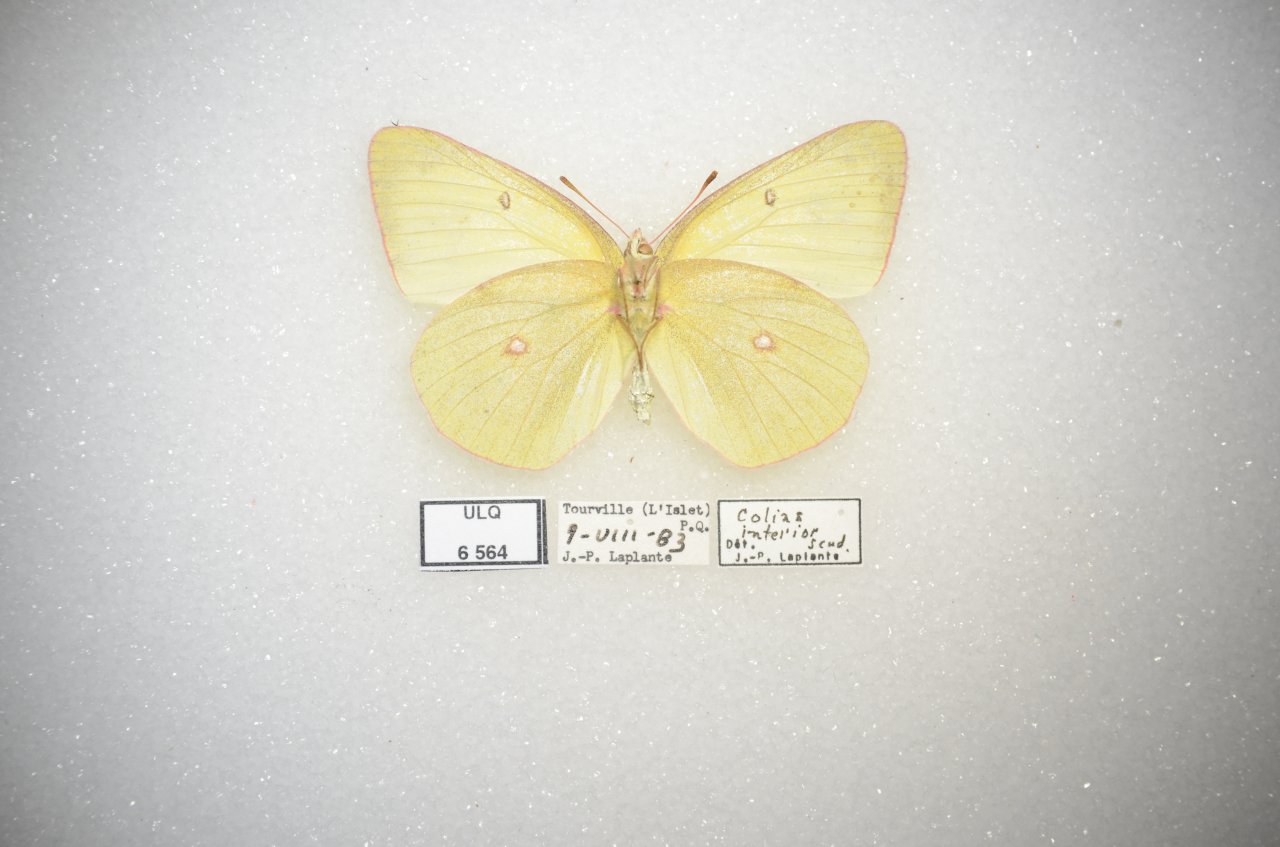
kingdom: Animalia
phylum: Arthropoda
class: Insecta
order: Lepidoptera
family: Pieridae
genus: Colias
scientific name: Colias interior
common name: Pink-edged Sulphur
